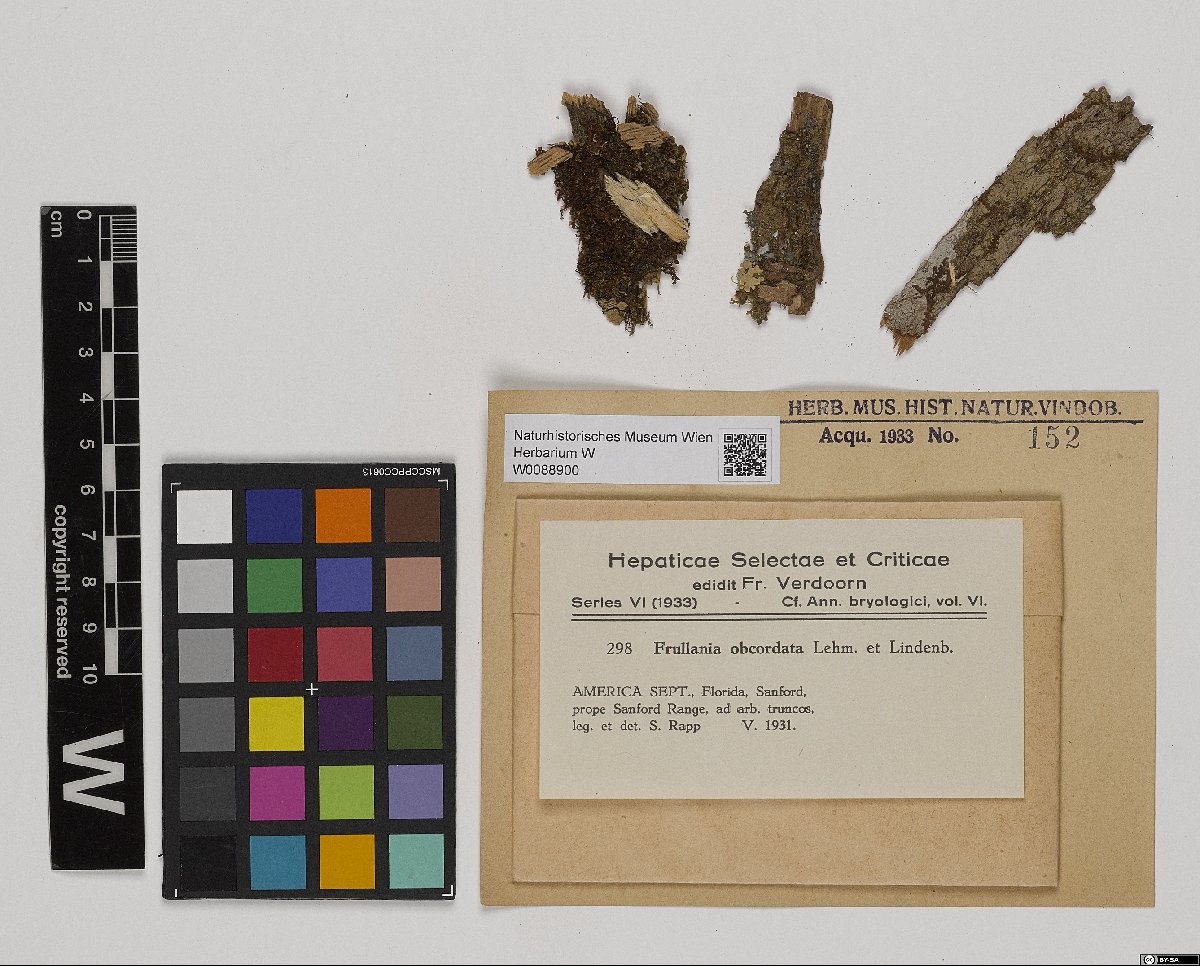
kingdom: Plantae
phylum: Marchantiophyta
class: Jungermanniopsida
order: Porellales
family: Frullaniaceae
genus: Frullania
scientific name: Frullania obcordata
